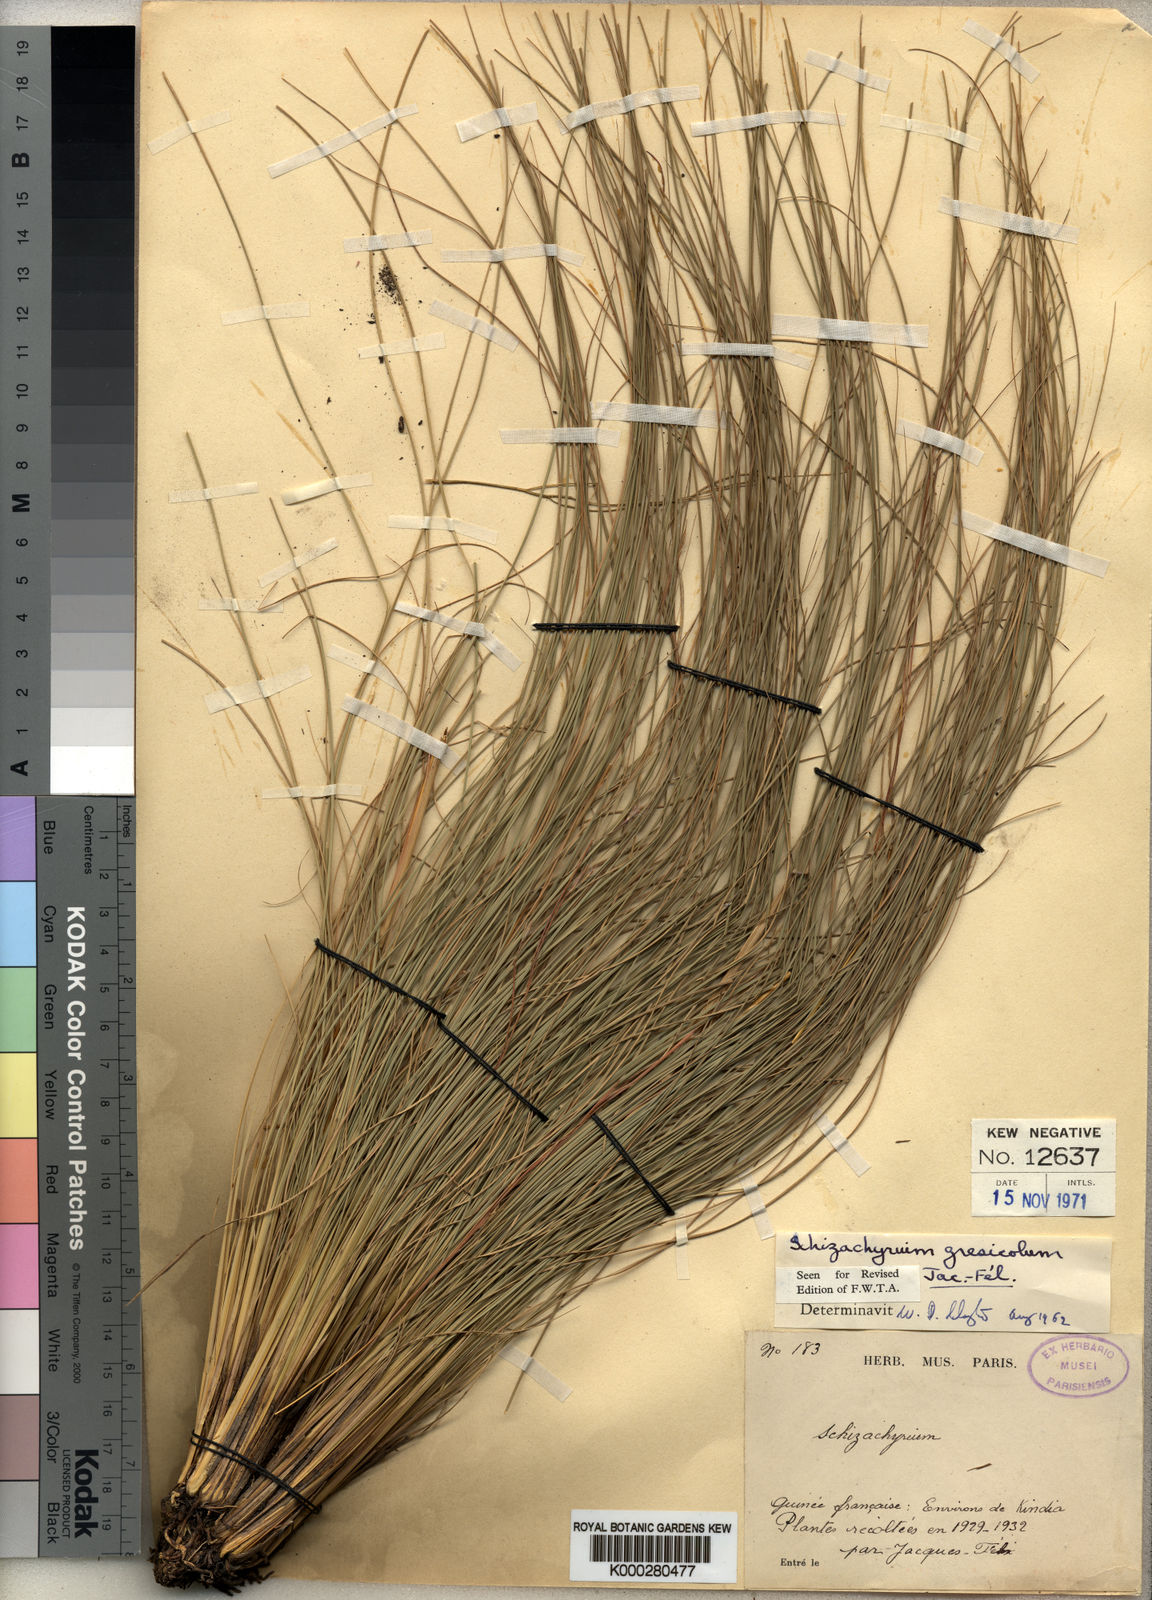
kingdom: Plantae
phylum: Tracheophyta
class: Liliopsida
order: Poales
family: Poaceae
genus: Schizachyrium
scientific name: Schizachyrium
